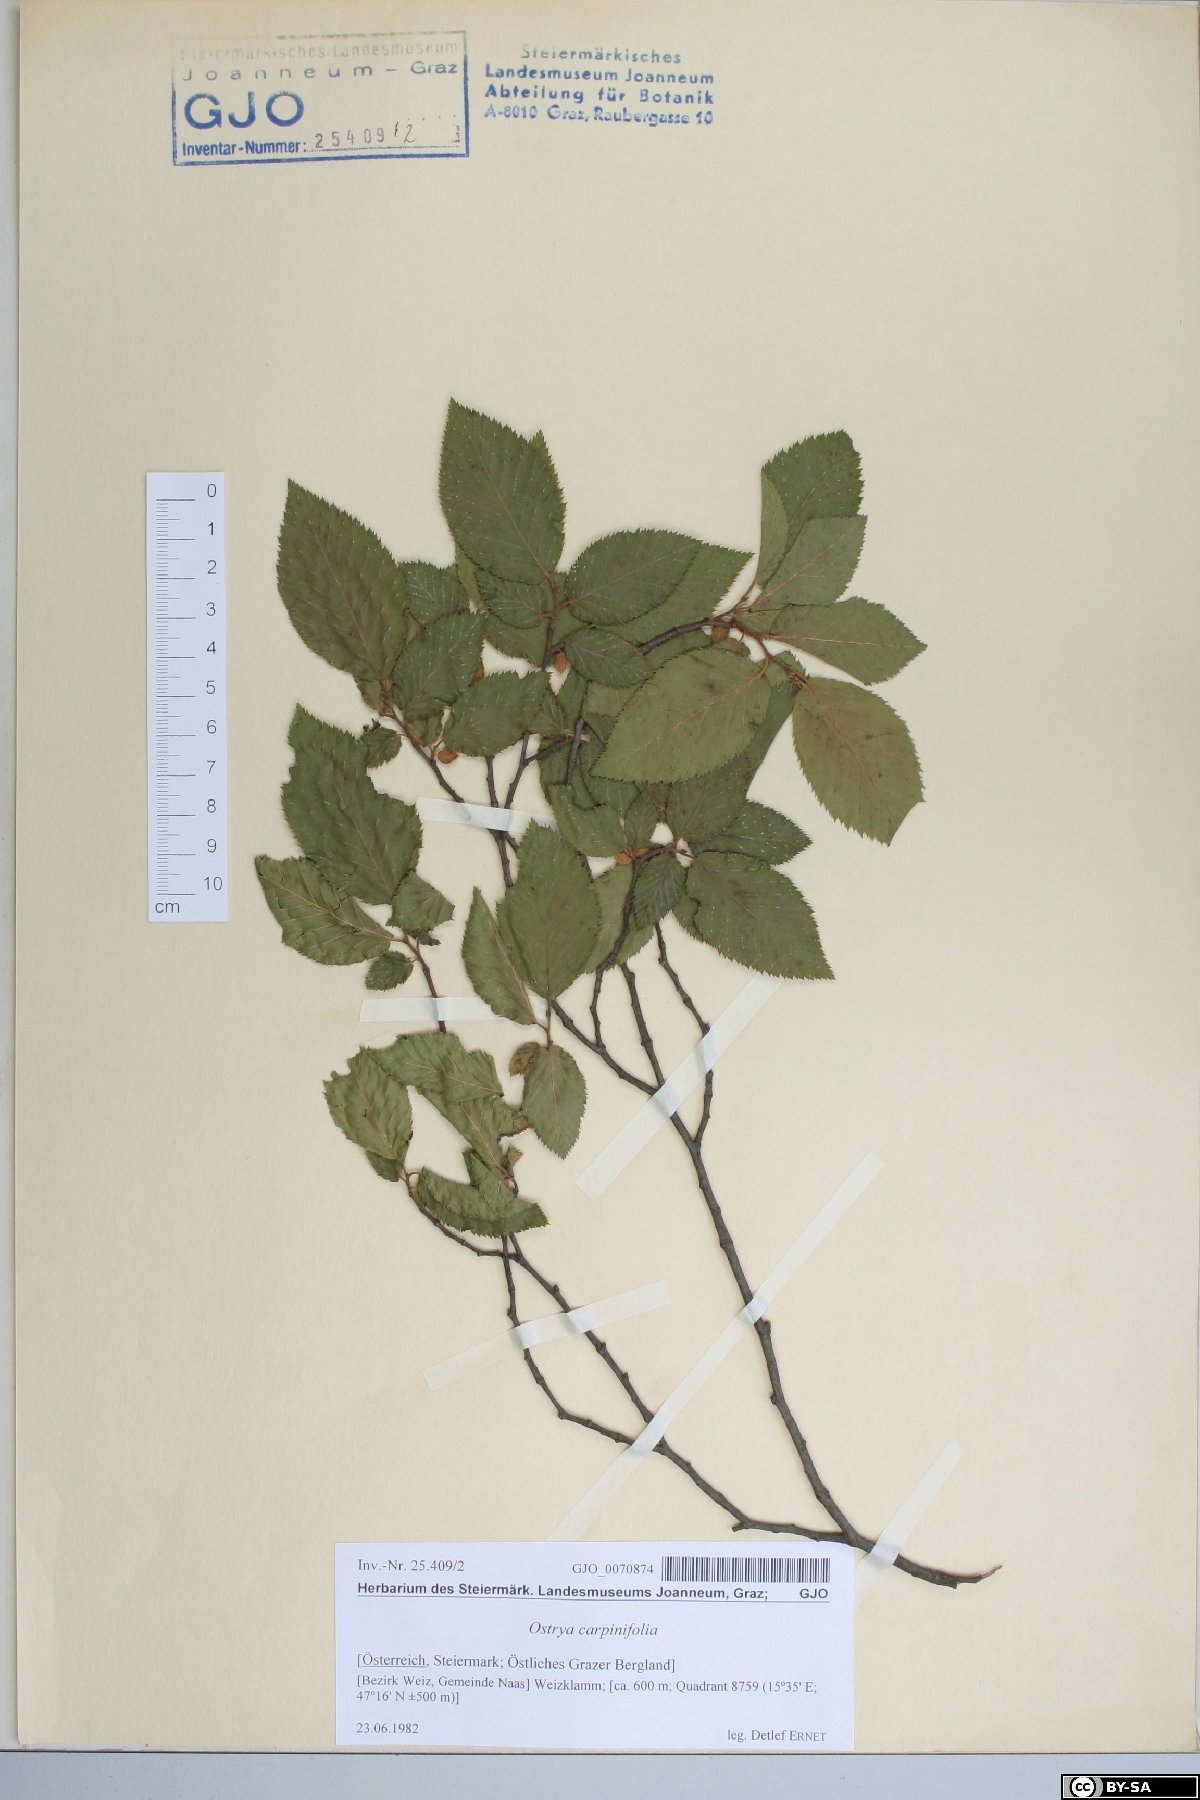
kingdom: Plantae
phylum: Tracheophyta
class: Magnoliopsida
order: Fagales
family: Betulaceae
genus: Ostrya
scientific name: Ostrya carpinifolia
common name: European hop-hornbeam
